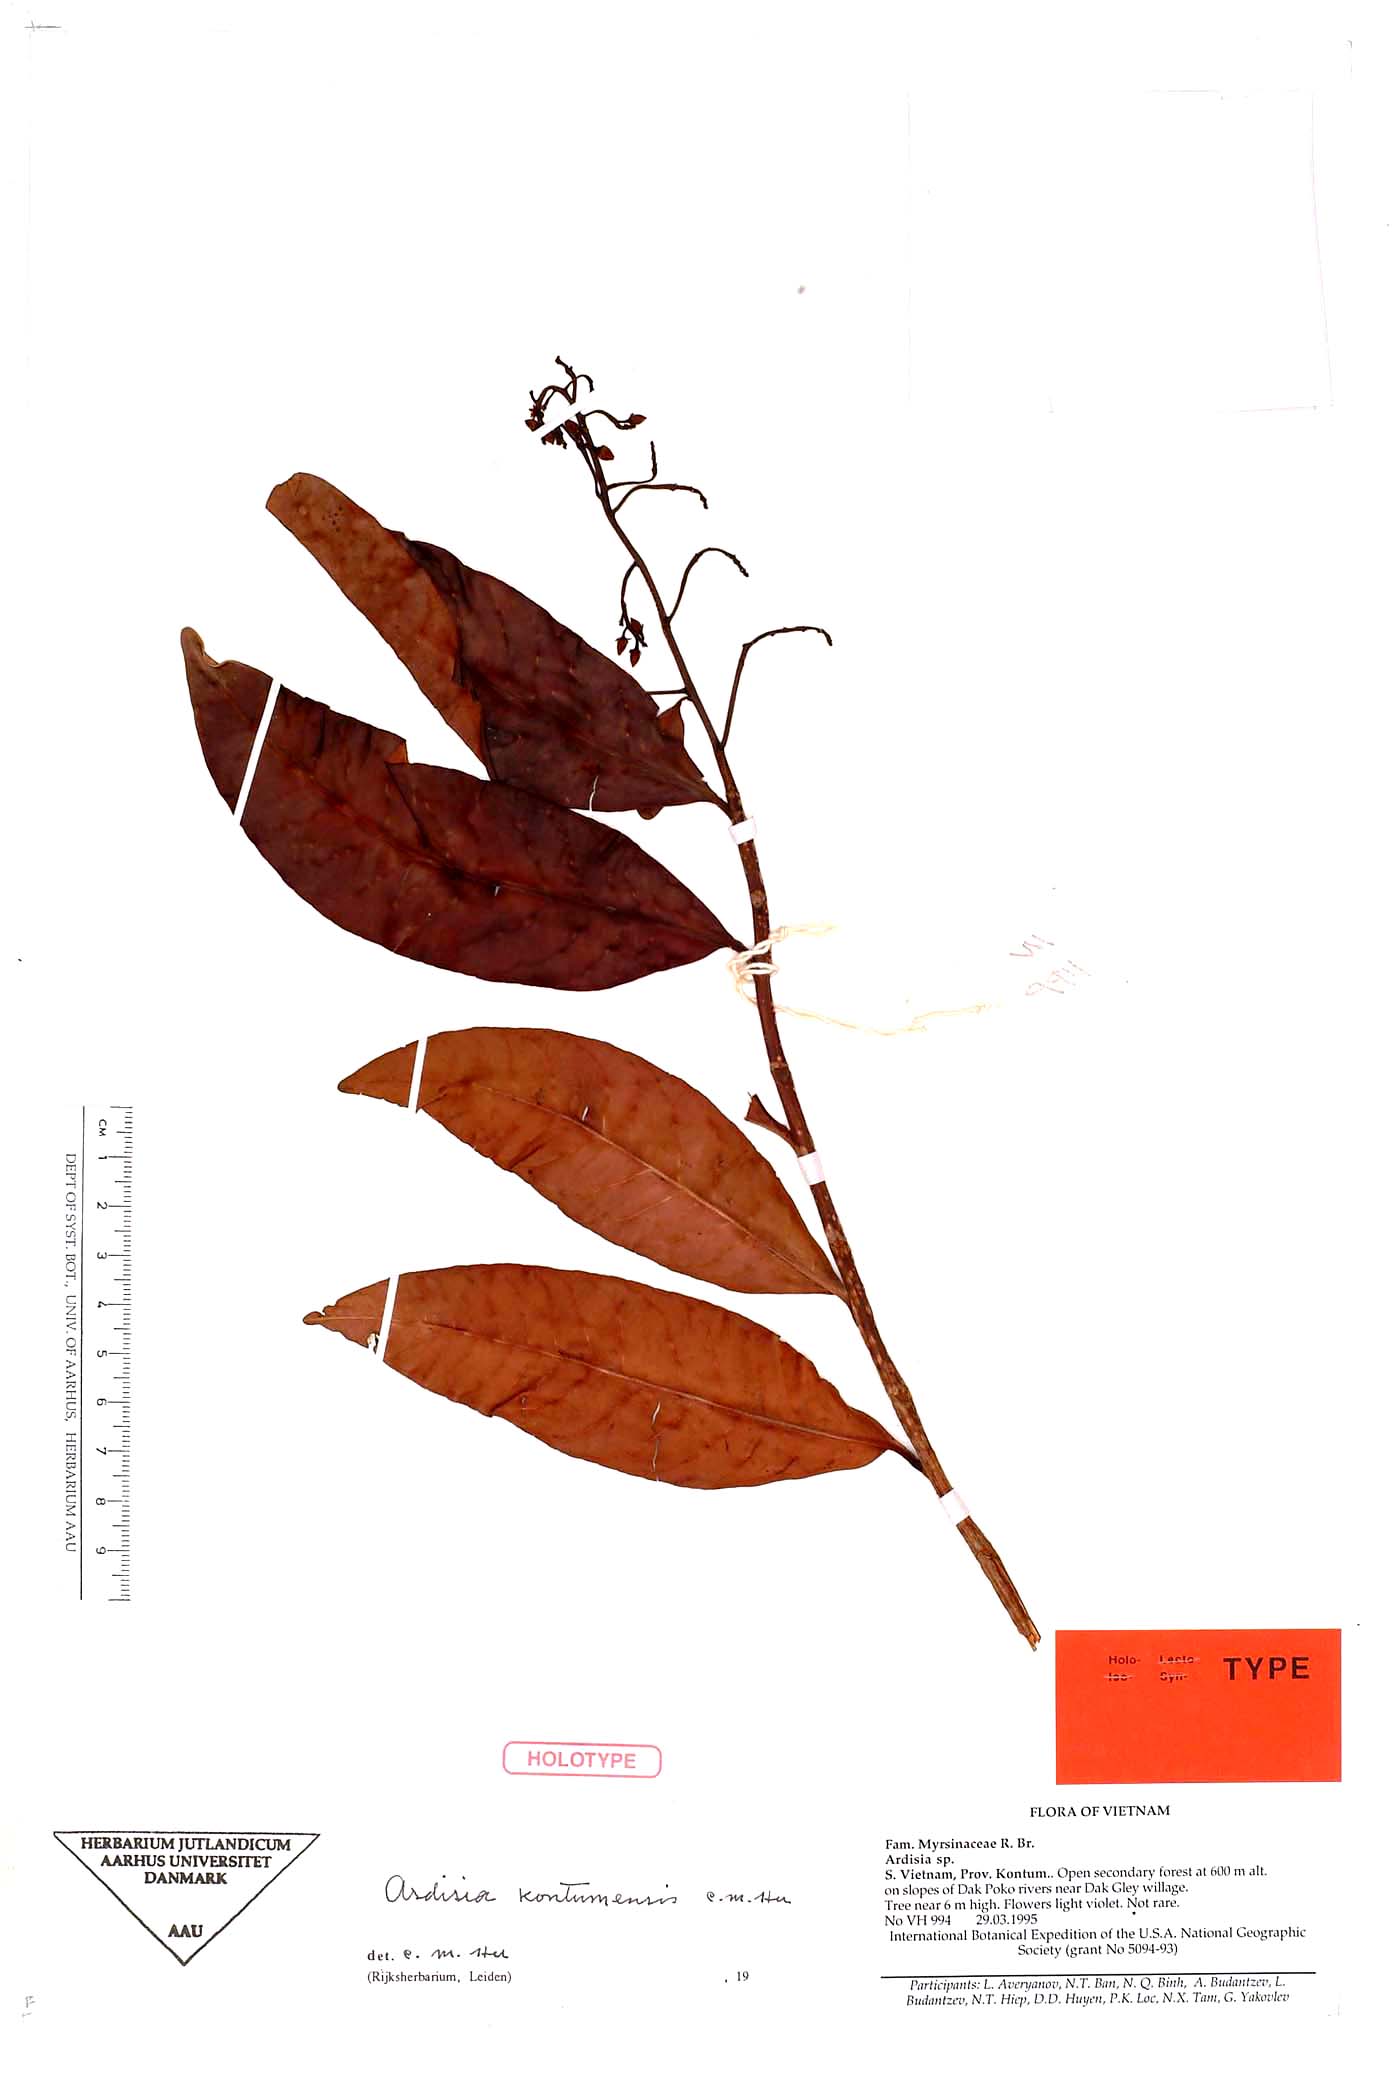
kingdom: Plantae
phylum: Tracheophyta
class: Magnoliopsida
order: Ericales
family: Primulaceae
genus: Ardisia
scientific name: Ardisia
